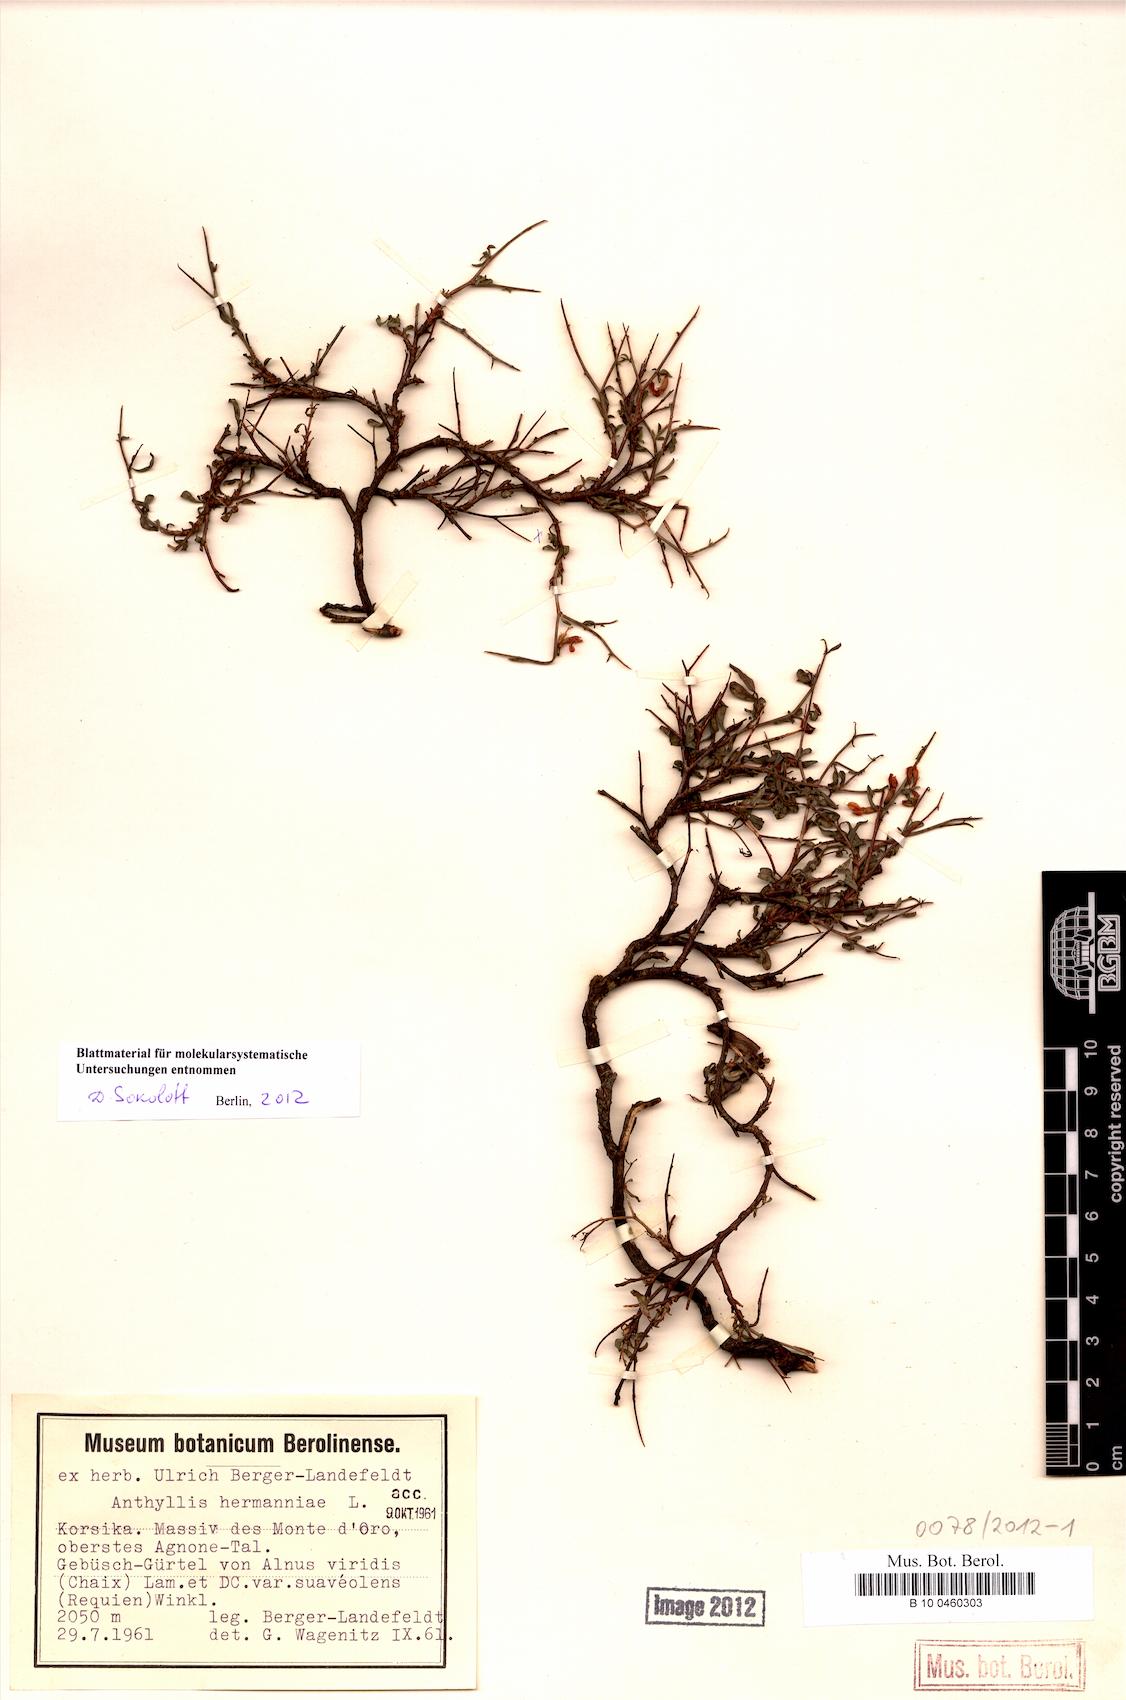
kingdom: Plantae
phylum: Tracheophyta
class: Magnoliopsida
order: Fabales
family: Fabaceae
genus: Anthyllis
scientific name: Anthyllis hermanniae
